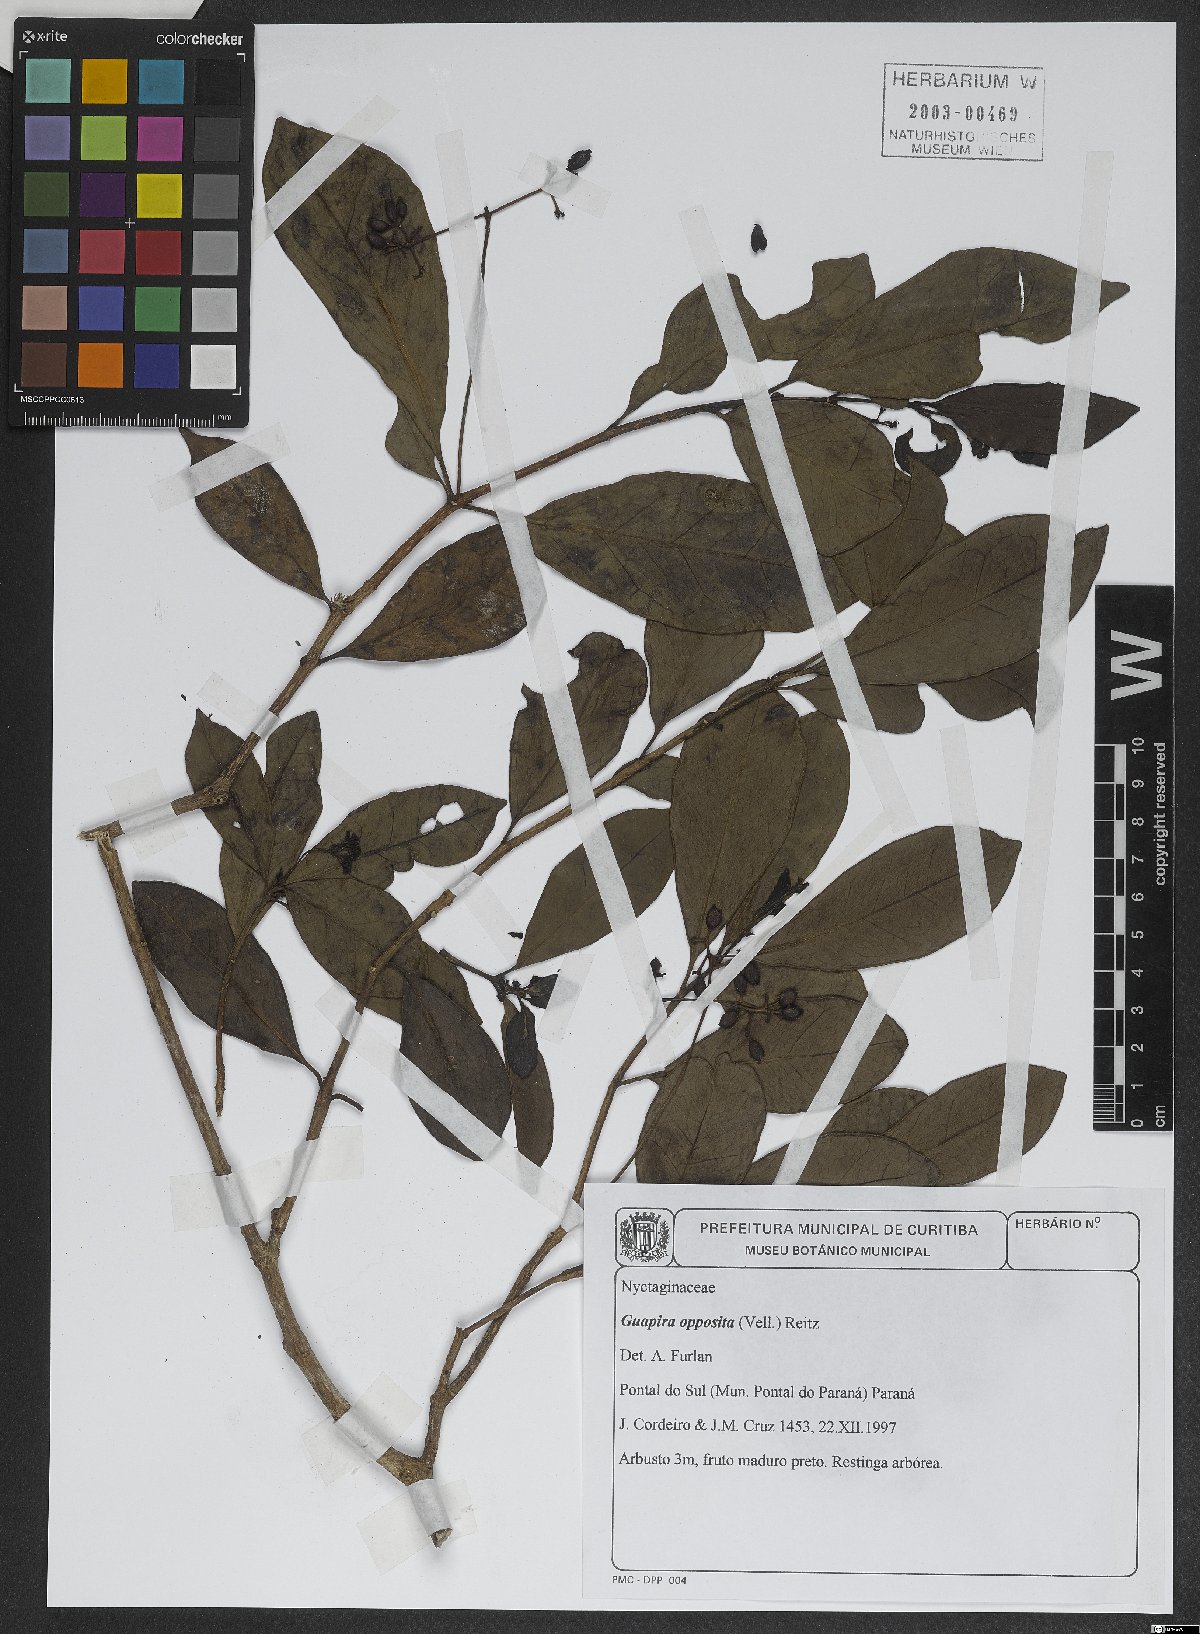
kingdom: Plantae
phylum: Tracheophyta
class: Magnoliopsida
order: Caryophyllales
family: Nyctaginaceae
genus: Guapira
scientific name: Guapira opposita
